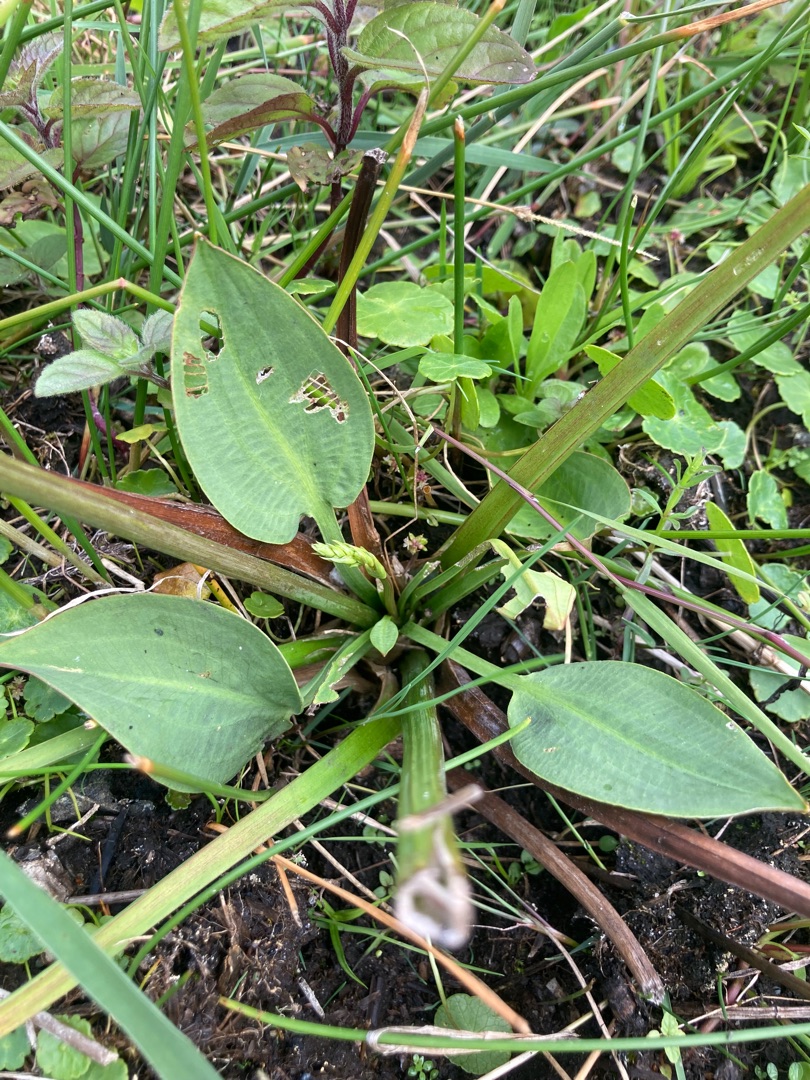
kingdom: Plantae
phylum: Tracheophyta
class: Liliopsida
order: Alismatales
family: Alismataceae
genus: Alisma
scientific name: Alisma plantago-aquatica
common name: Vejbred-skeblad
